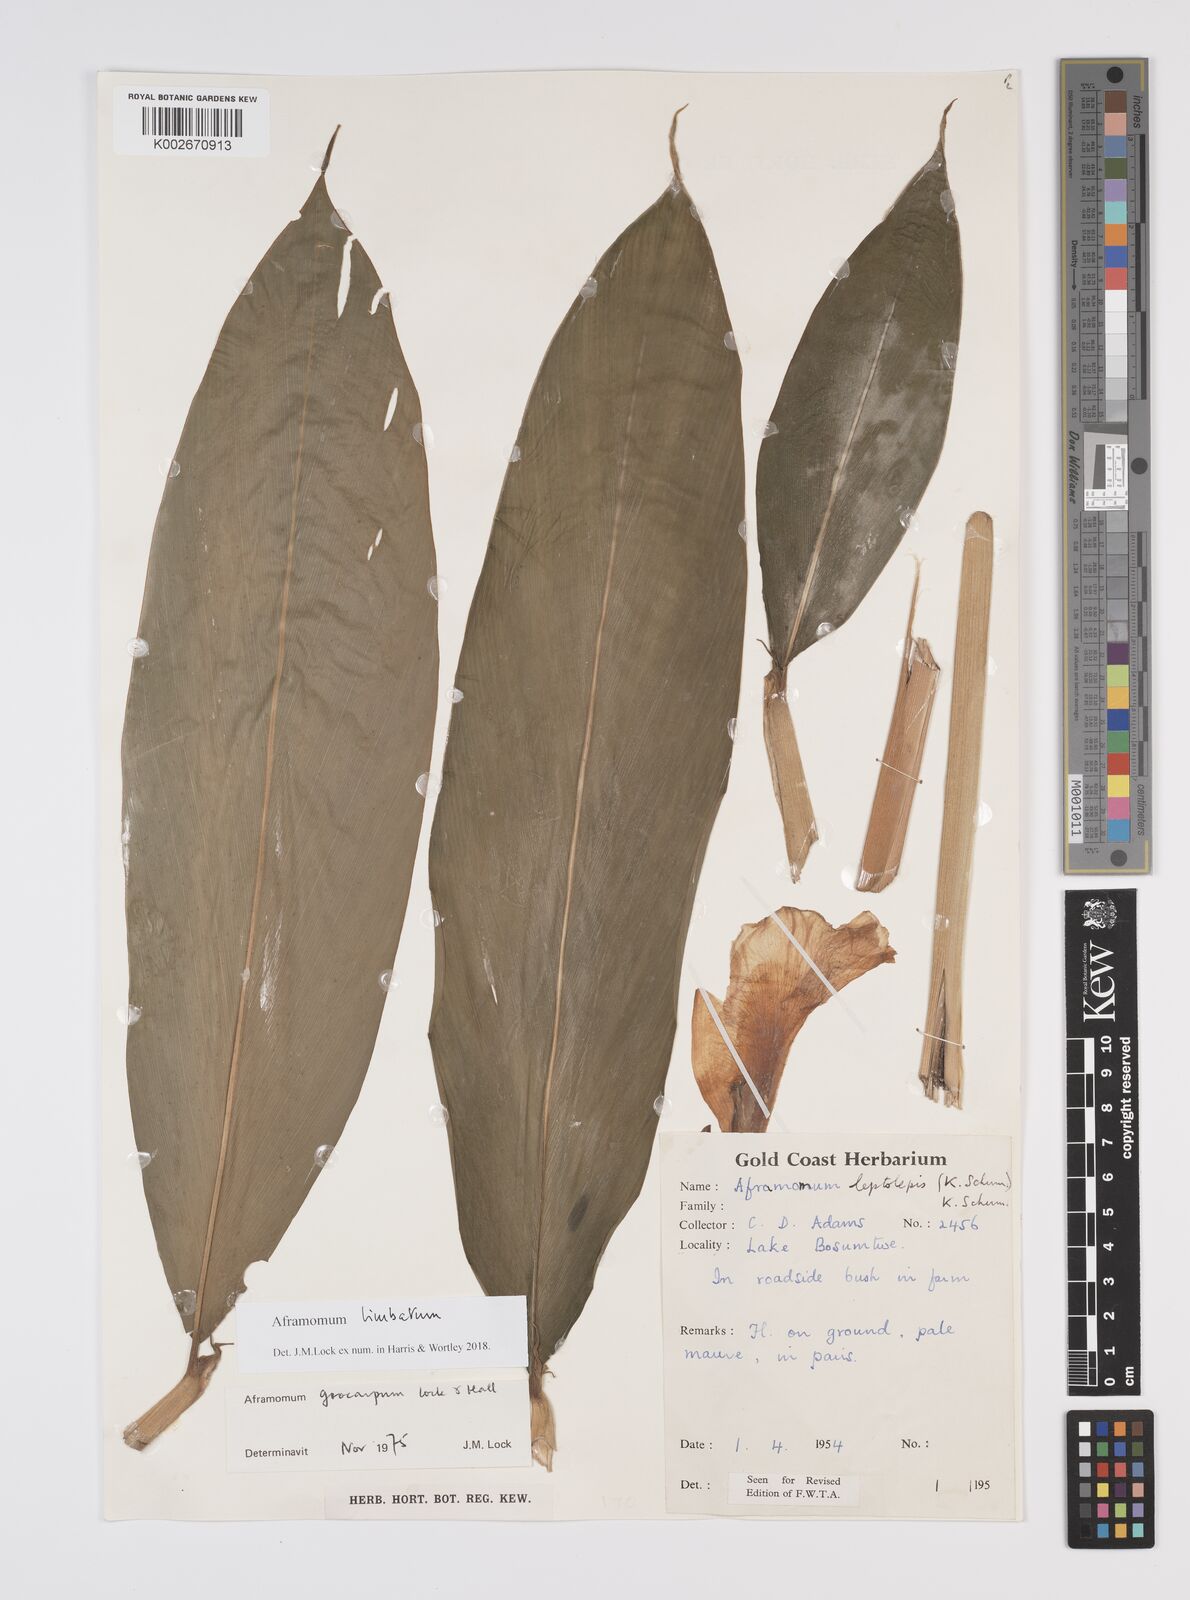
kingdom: Plantae
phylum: Tracheophyta
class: Liliopsida
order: Zingiberales
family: Zingiberaceae
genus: Aframomum
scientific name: Aframomum limbatum
